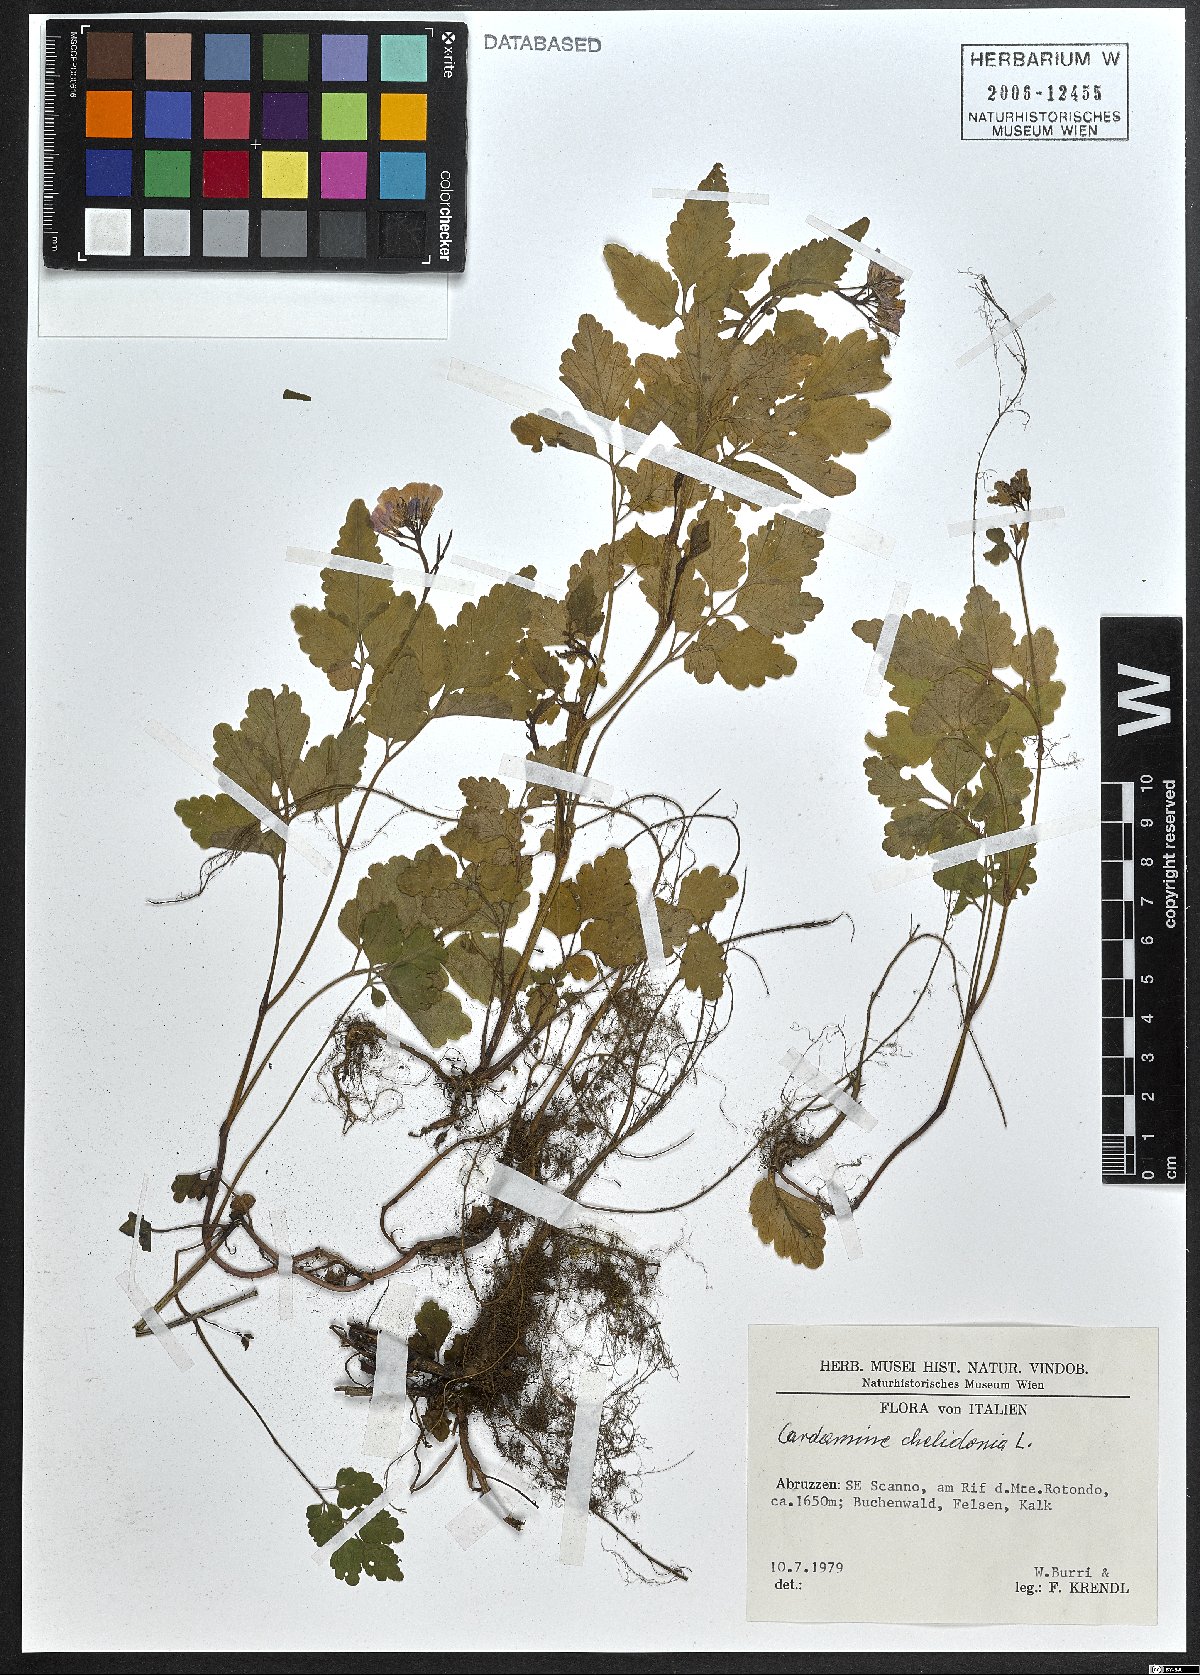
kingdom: Plantae
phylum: Tracheophyta
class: Magnoliopsida
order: Brassicales
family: Brassicaceae
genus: Cardamine
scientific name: Cardamine chelidonia
